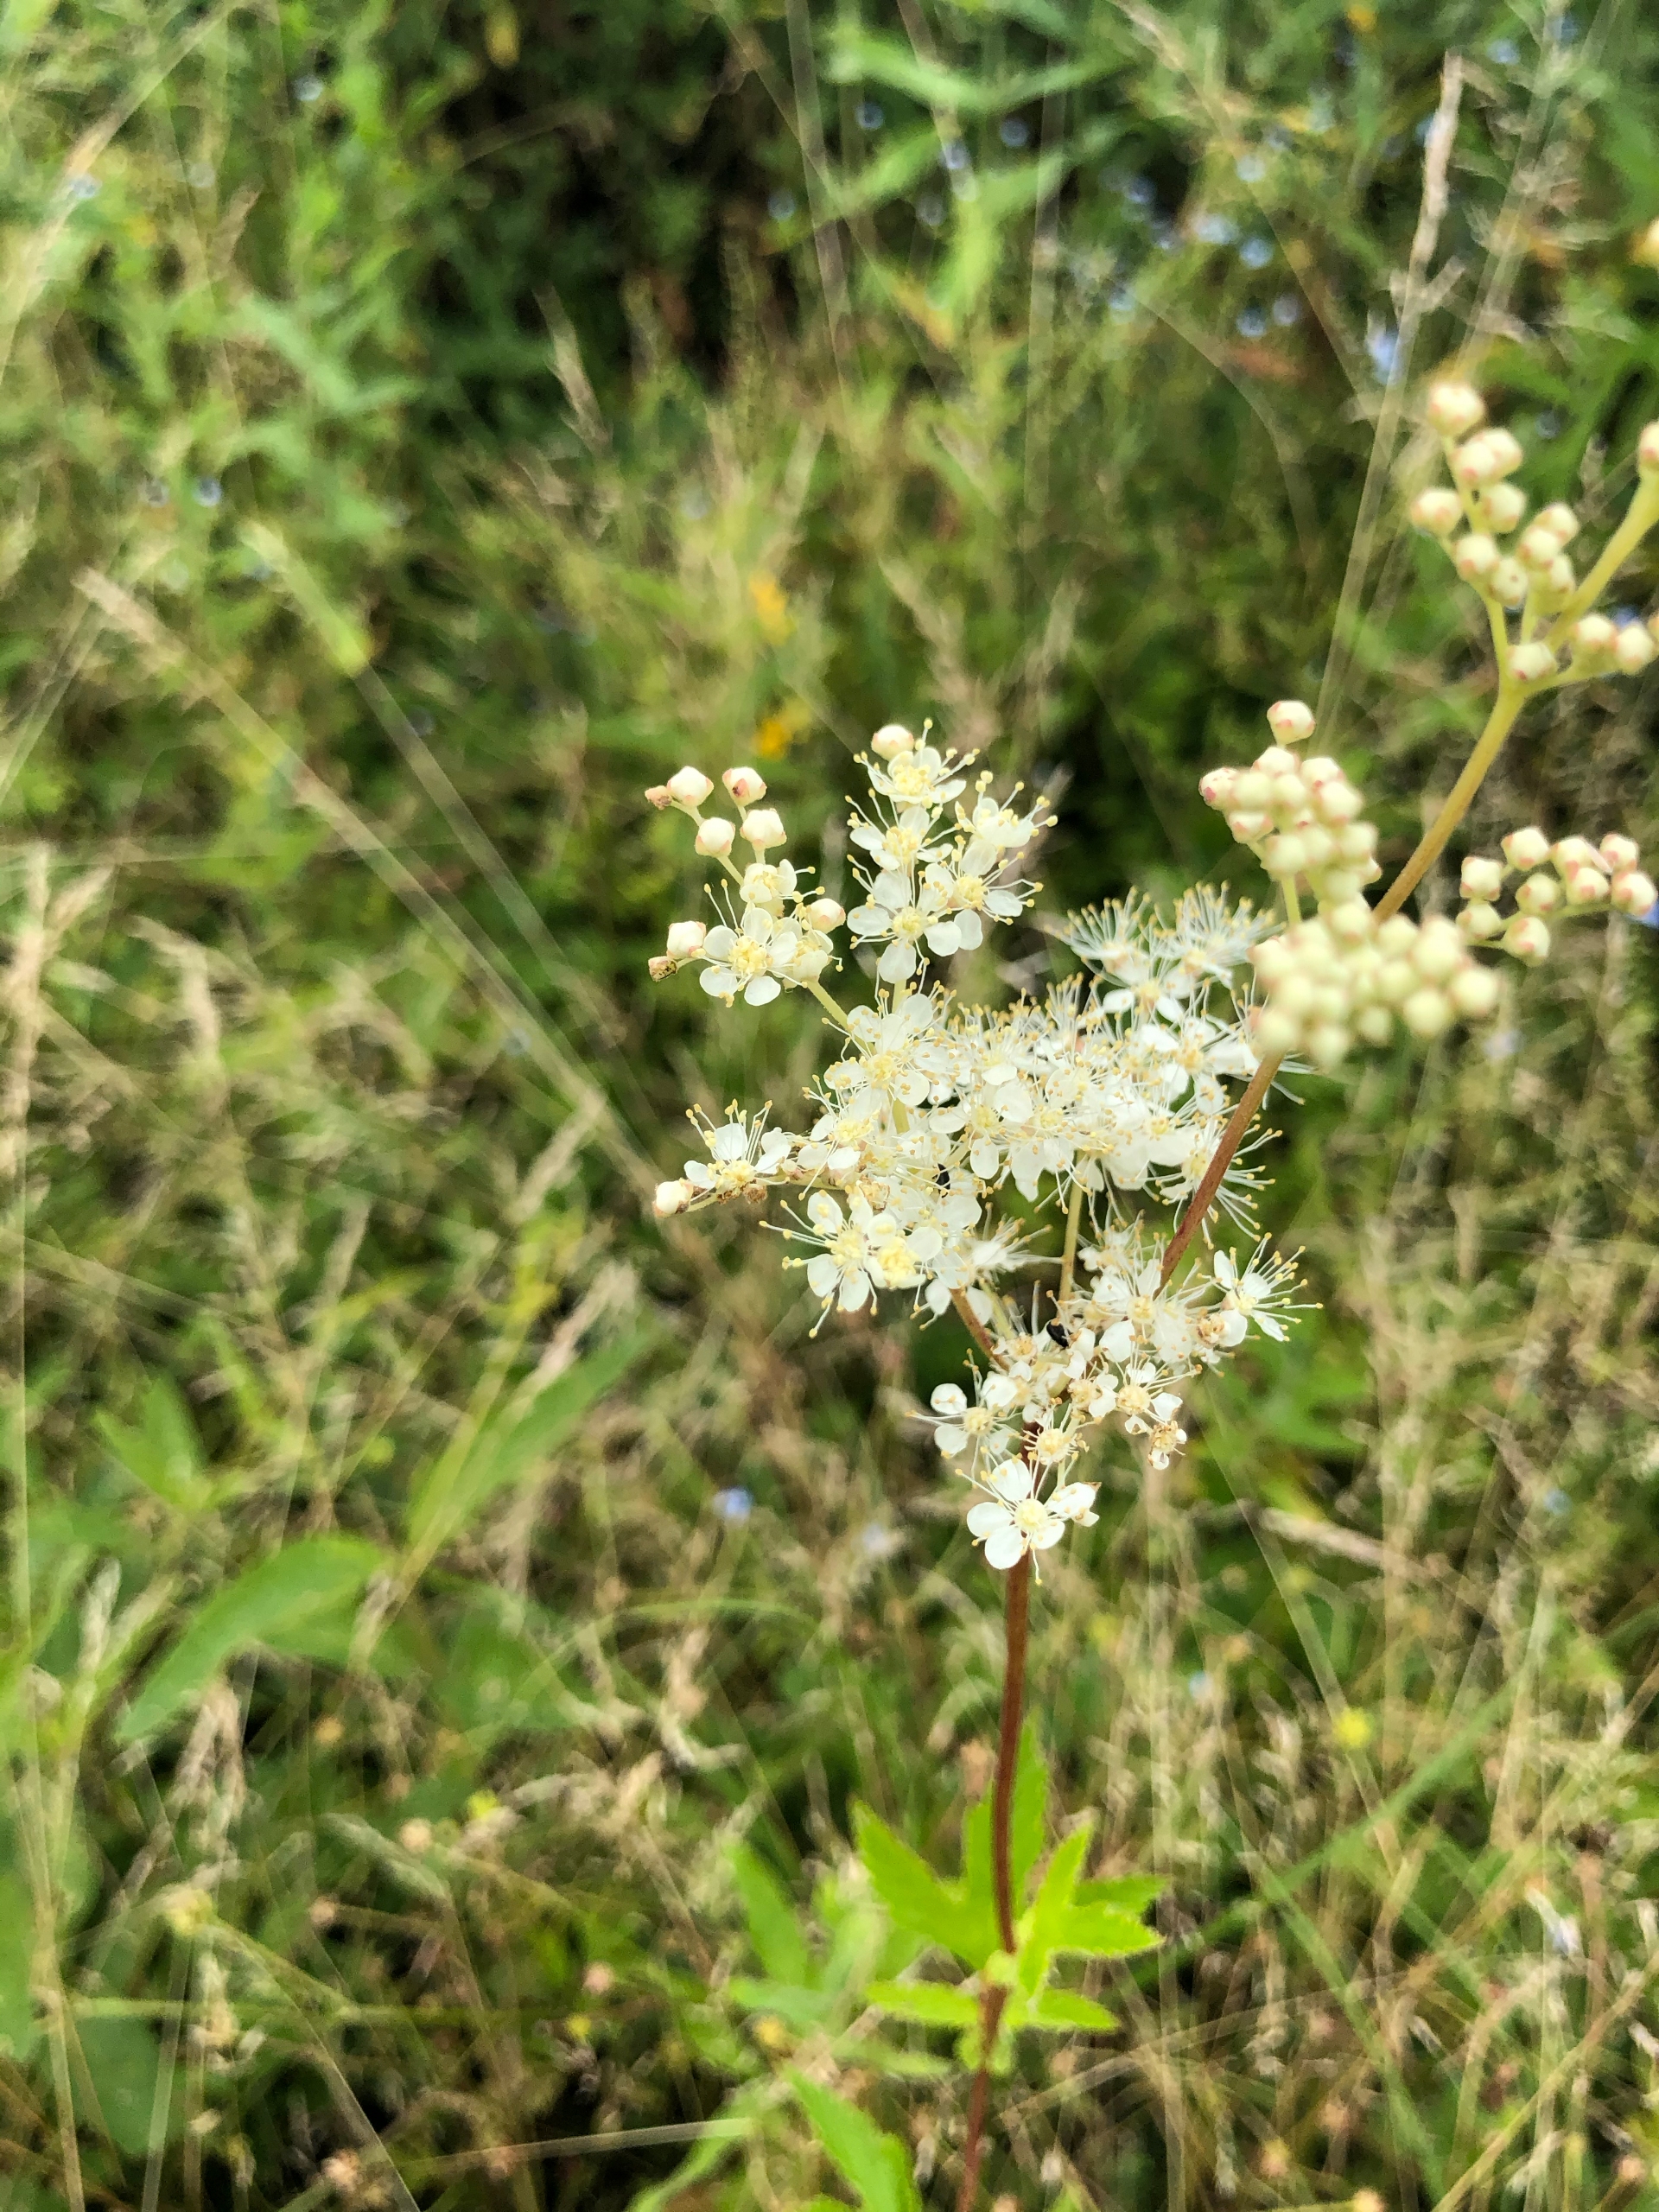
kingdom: Plantae
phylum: Tracheophyta
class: Magnoliopsida
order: Rosales
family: Rosaceae
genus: Filipendula
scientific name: Filipendula ulmaria
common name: Almindelig mjødurt
